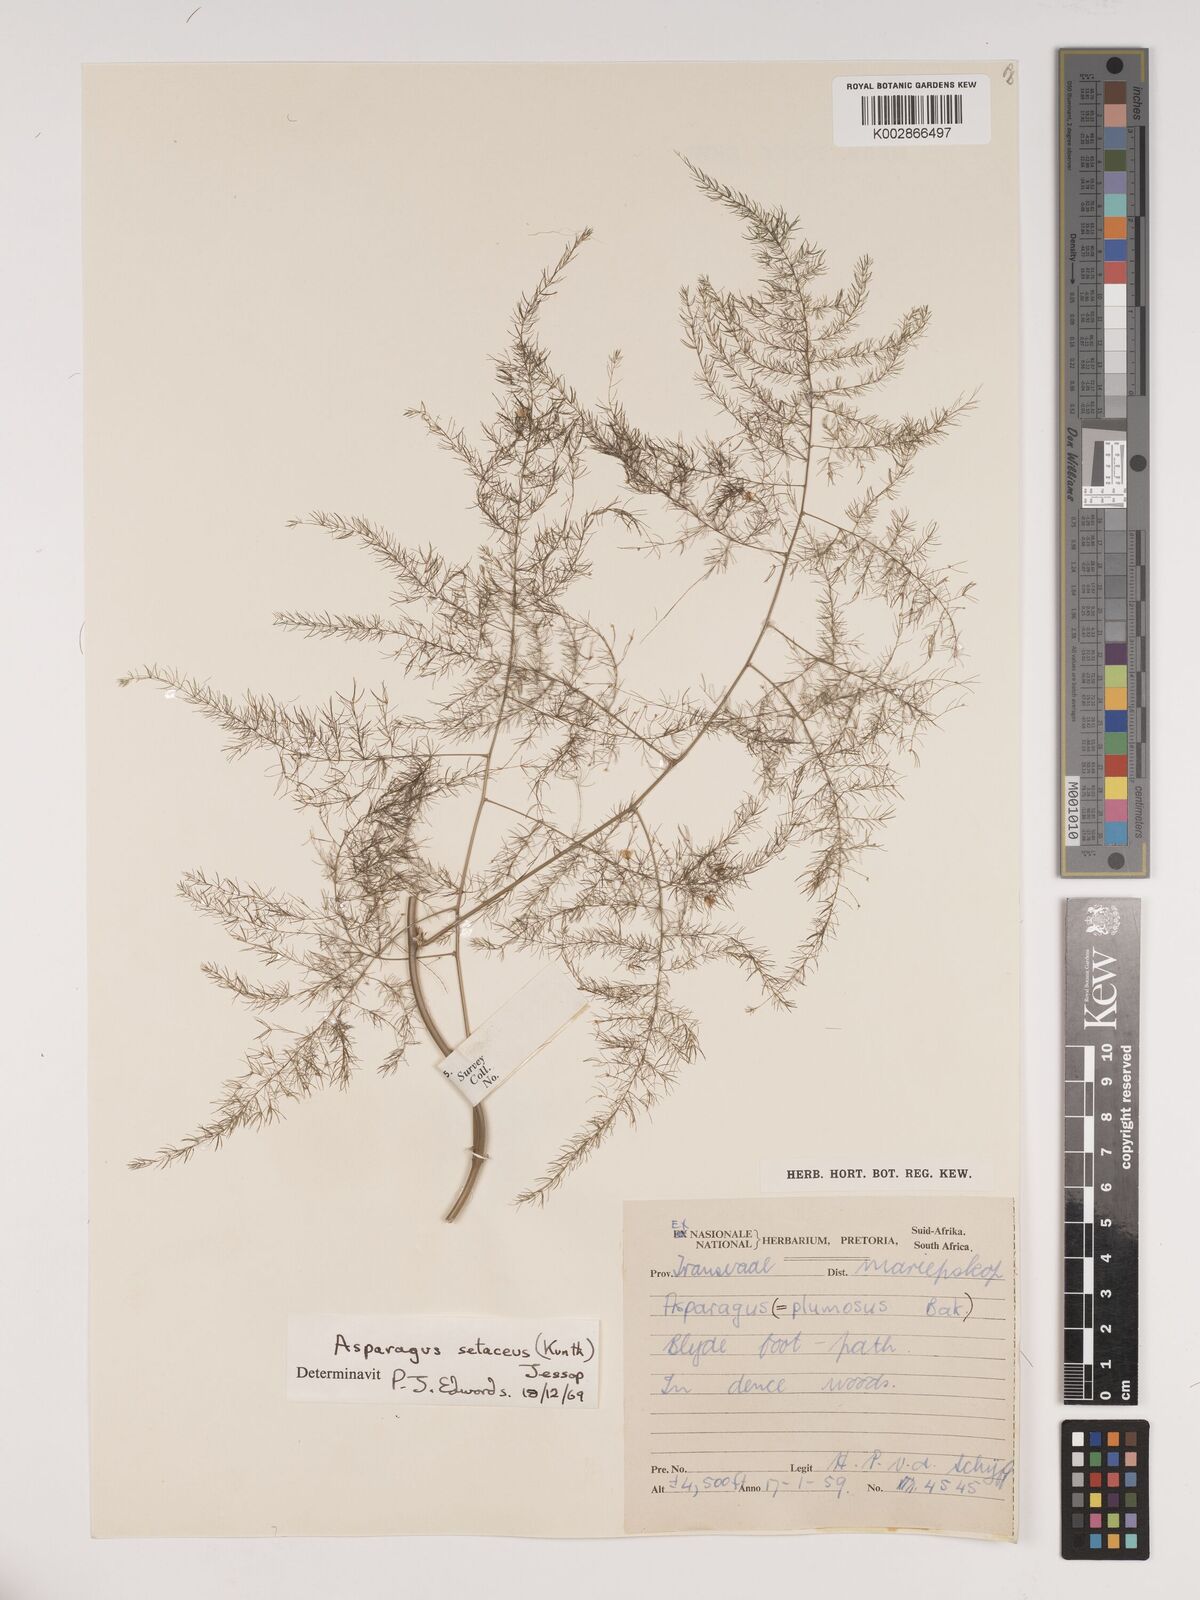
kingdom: Plantae
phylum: Tracheophyta
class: Liliopsida
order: Asparagales
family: Asparagaceae
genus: Asparagus
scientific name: Asparagus setaceus
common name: Common asparagus fern
